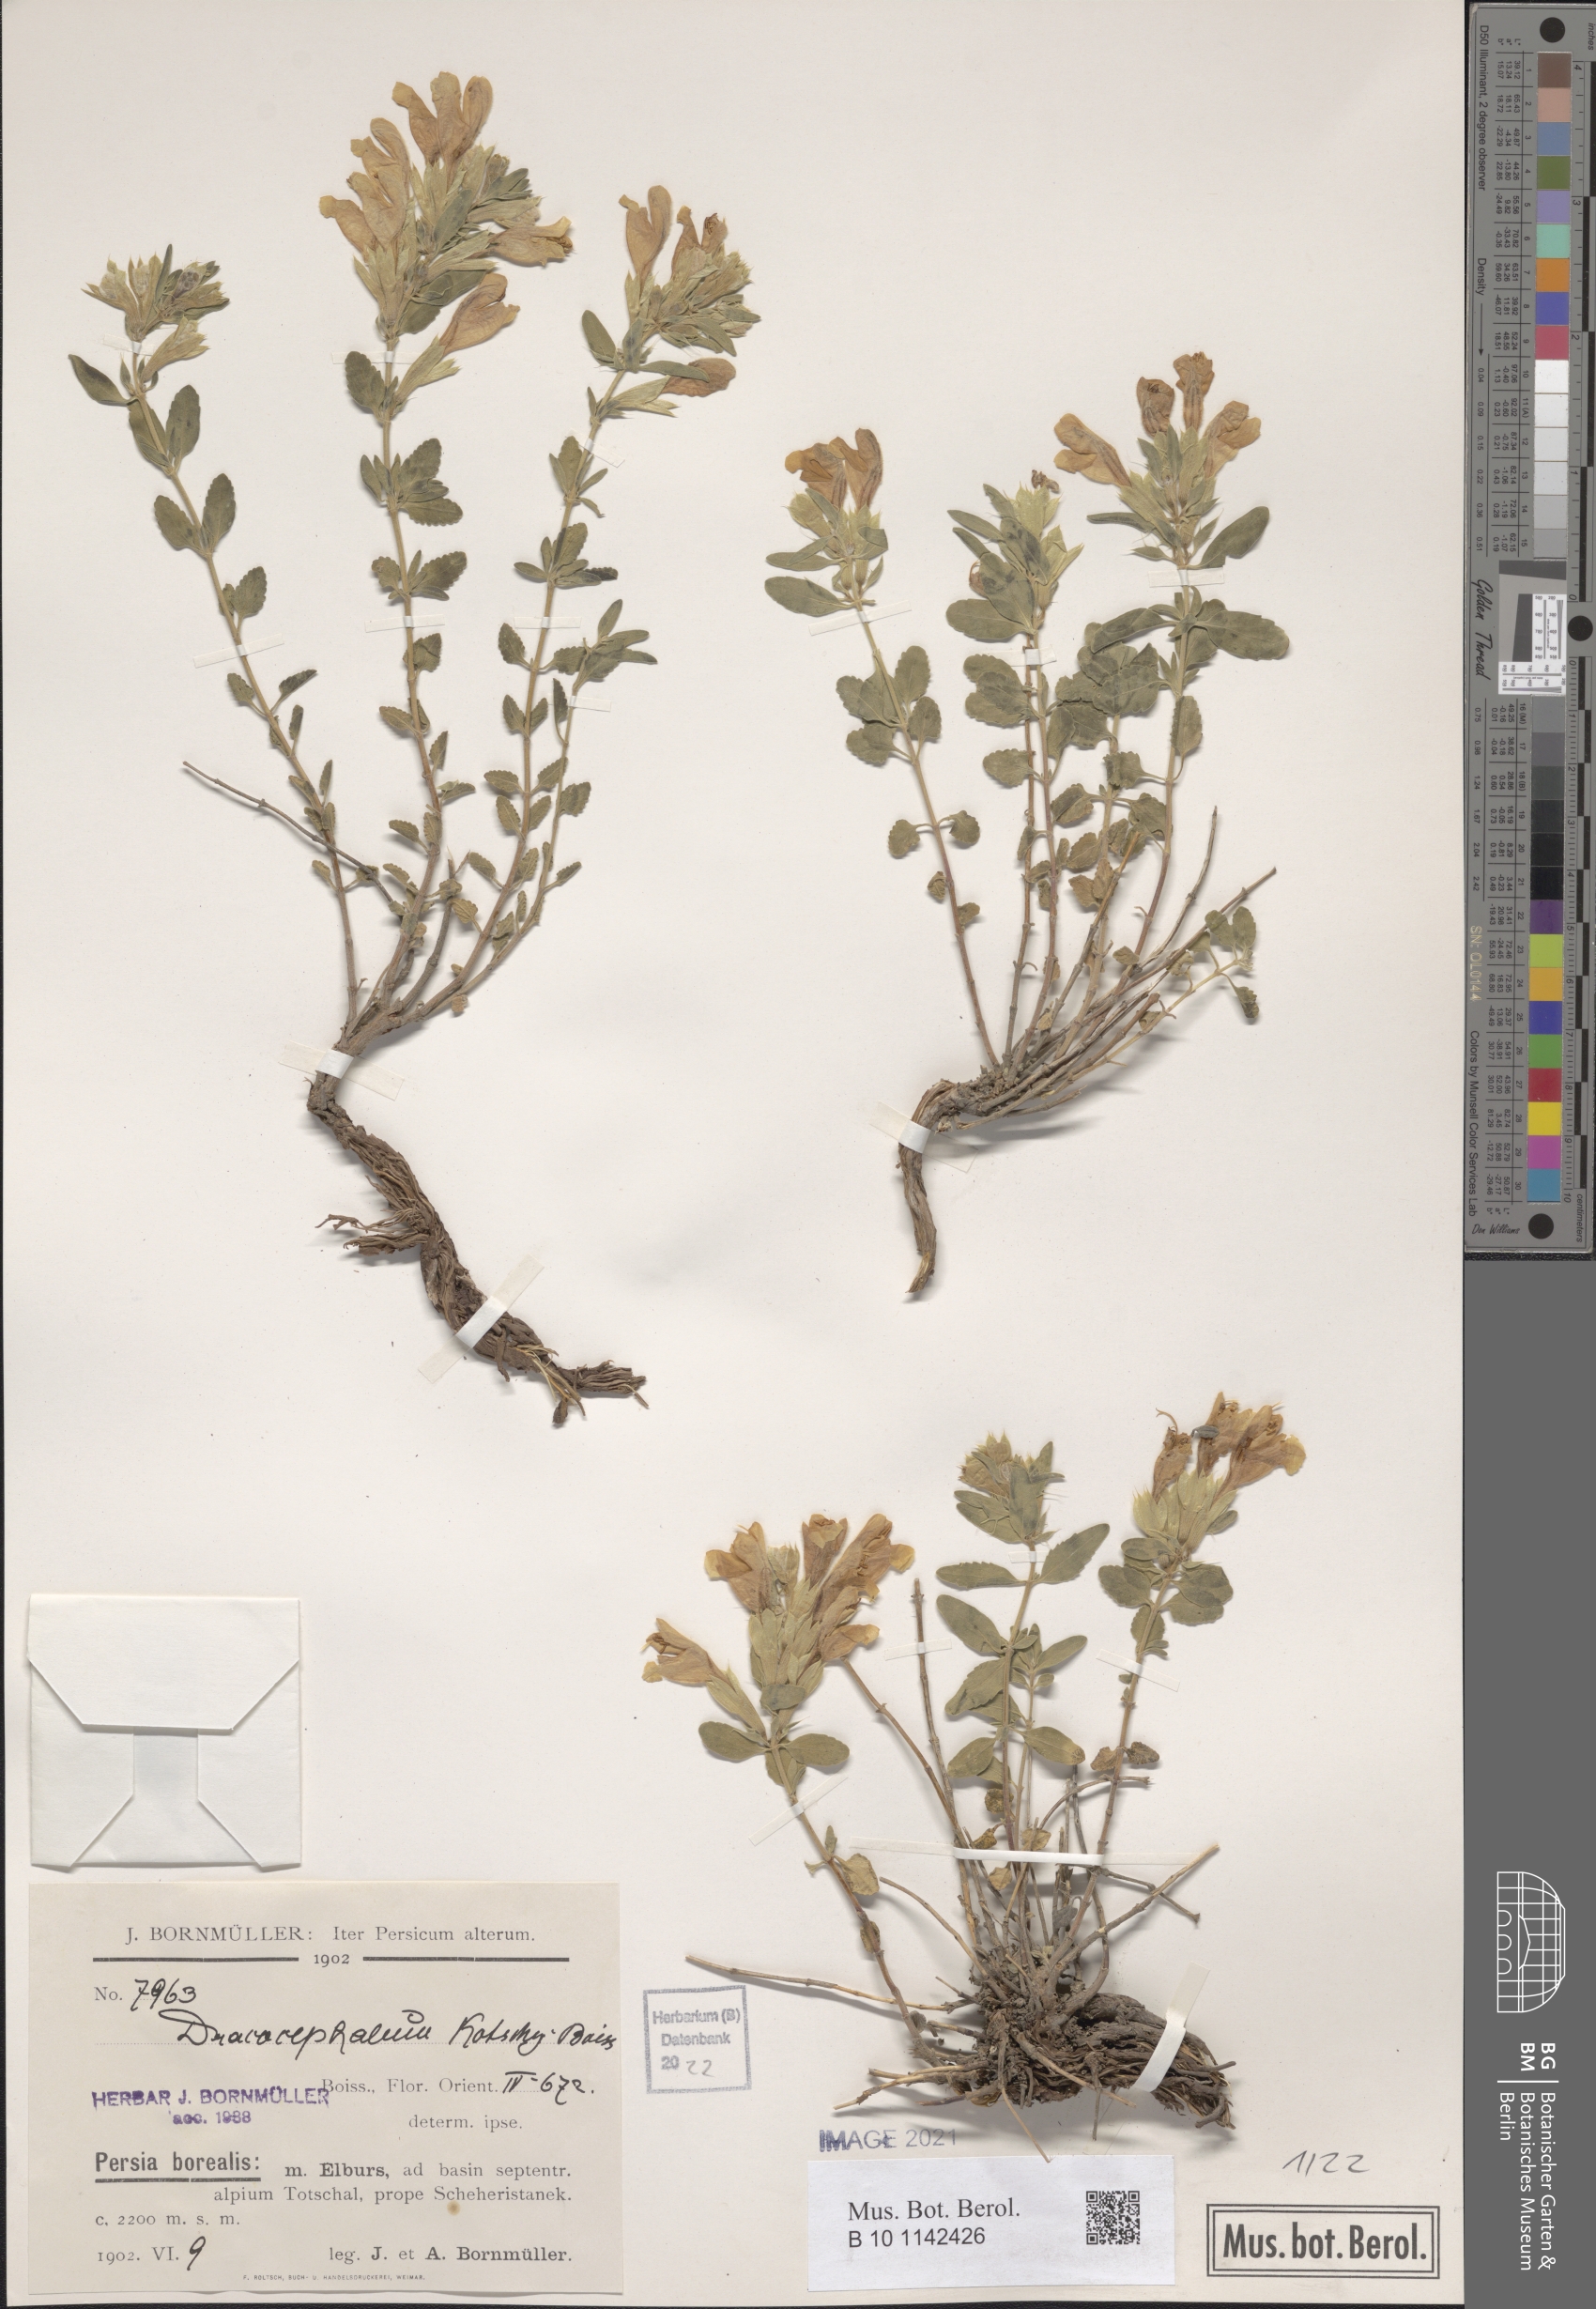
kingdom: Plantae
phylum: Tracheophyta
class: Magnoliopsida
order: Lamiales
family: Lamiaceae
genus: Dracocephalum
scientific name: Dracocephalum kotschyi
